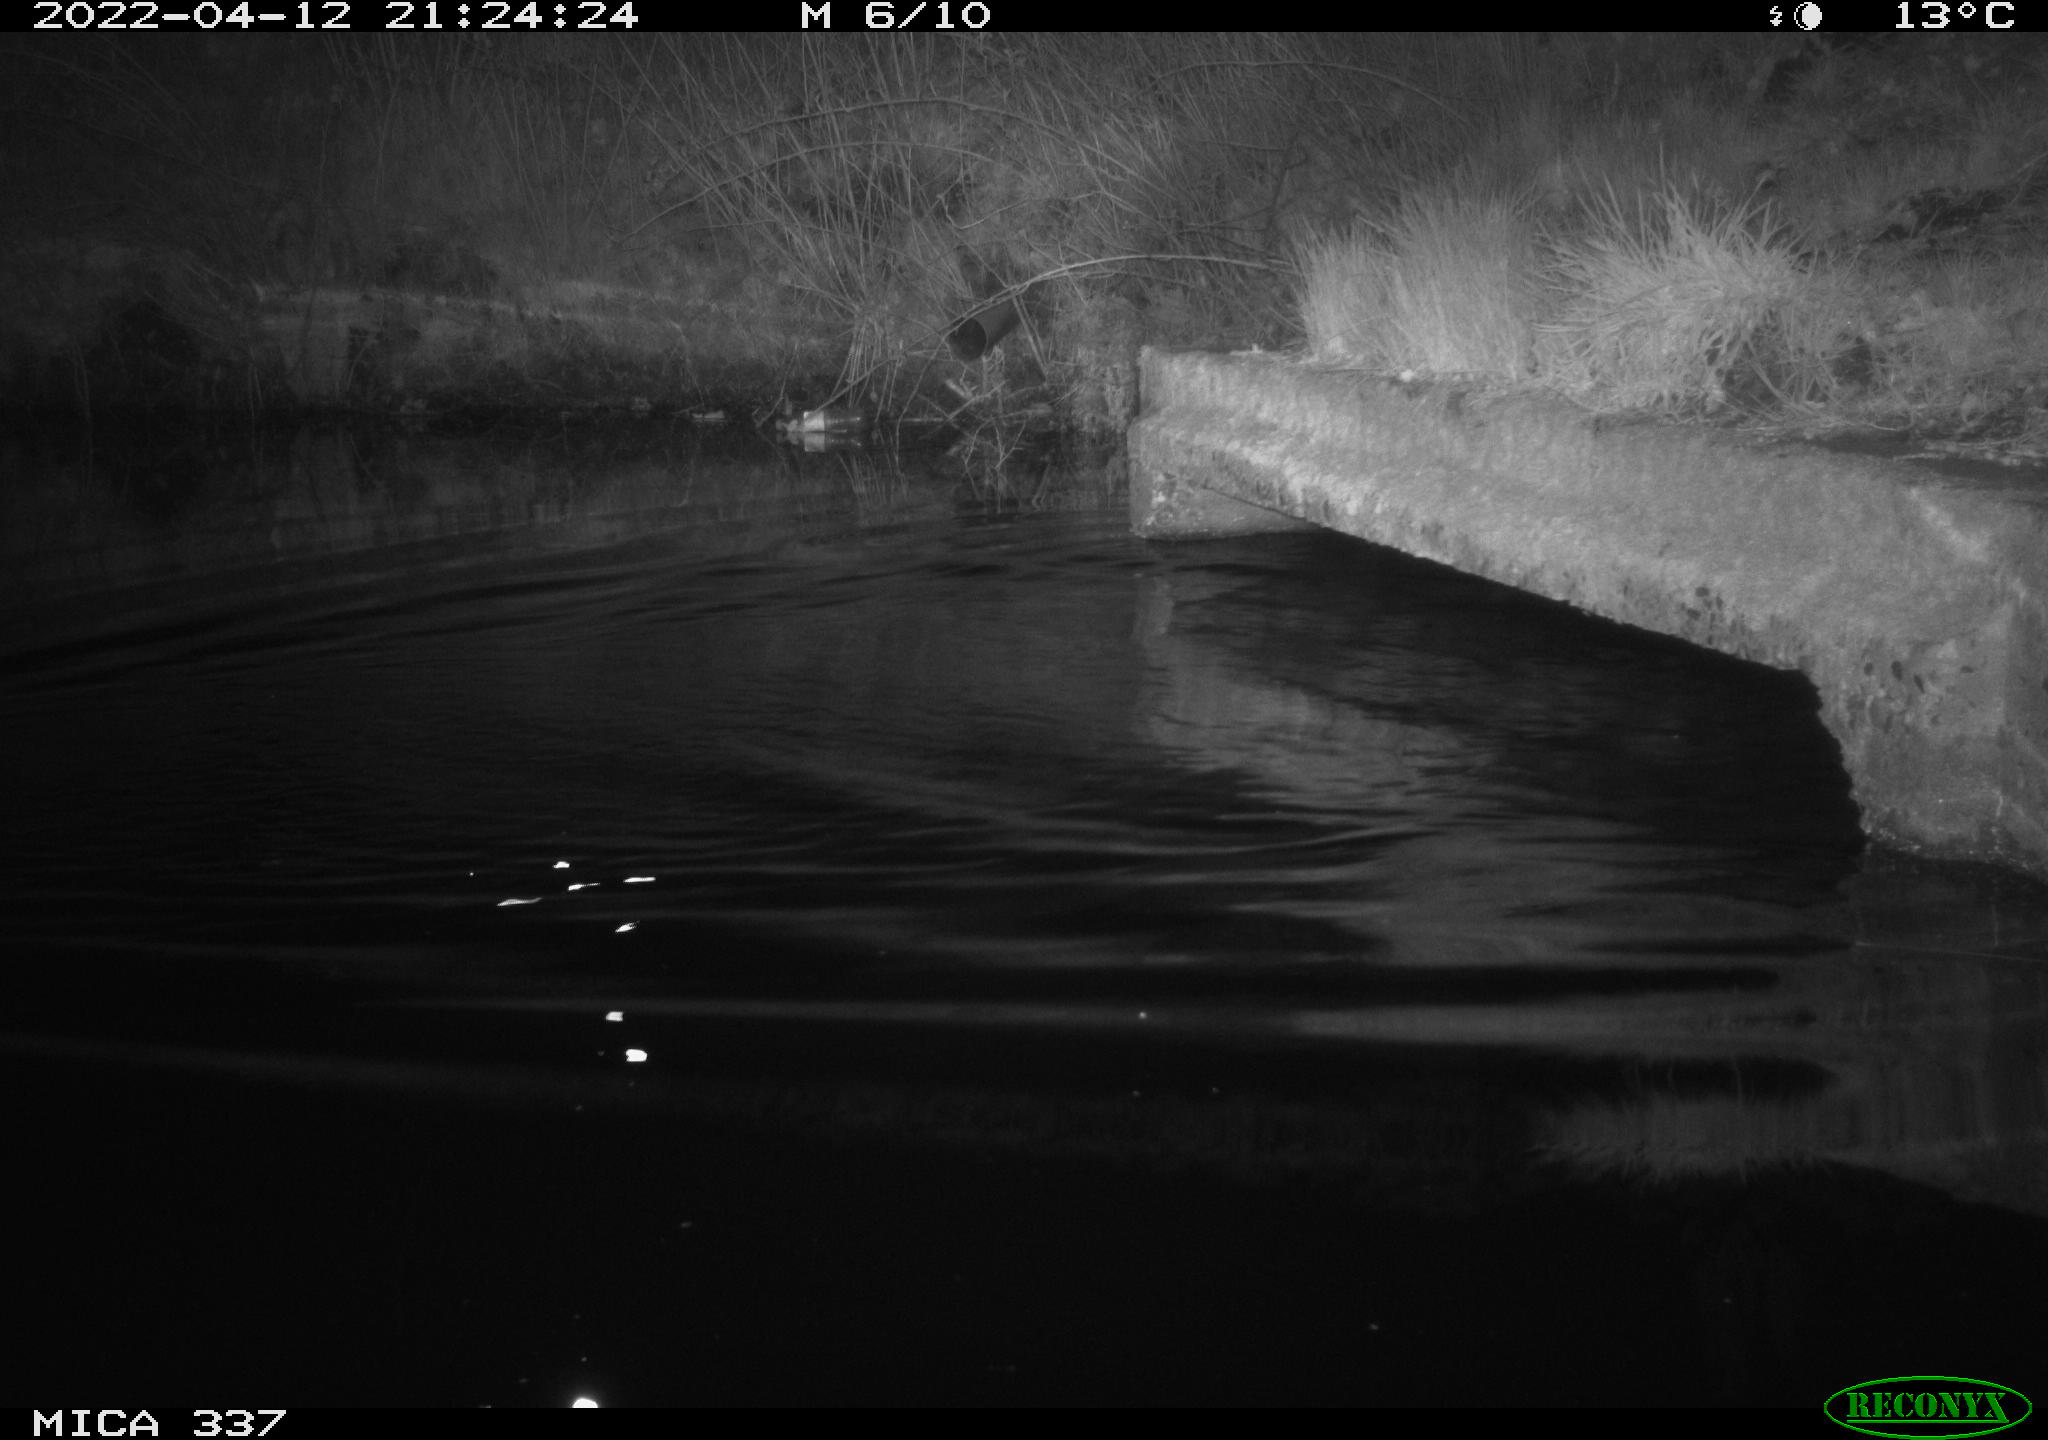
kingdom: Animalia
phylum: Chordata
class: Aves
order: Anseriformes
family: Anatidae
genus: Anas
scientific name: Anas platyrhynchos
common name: Mallard
